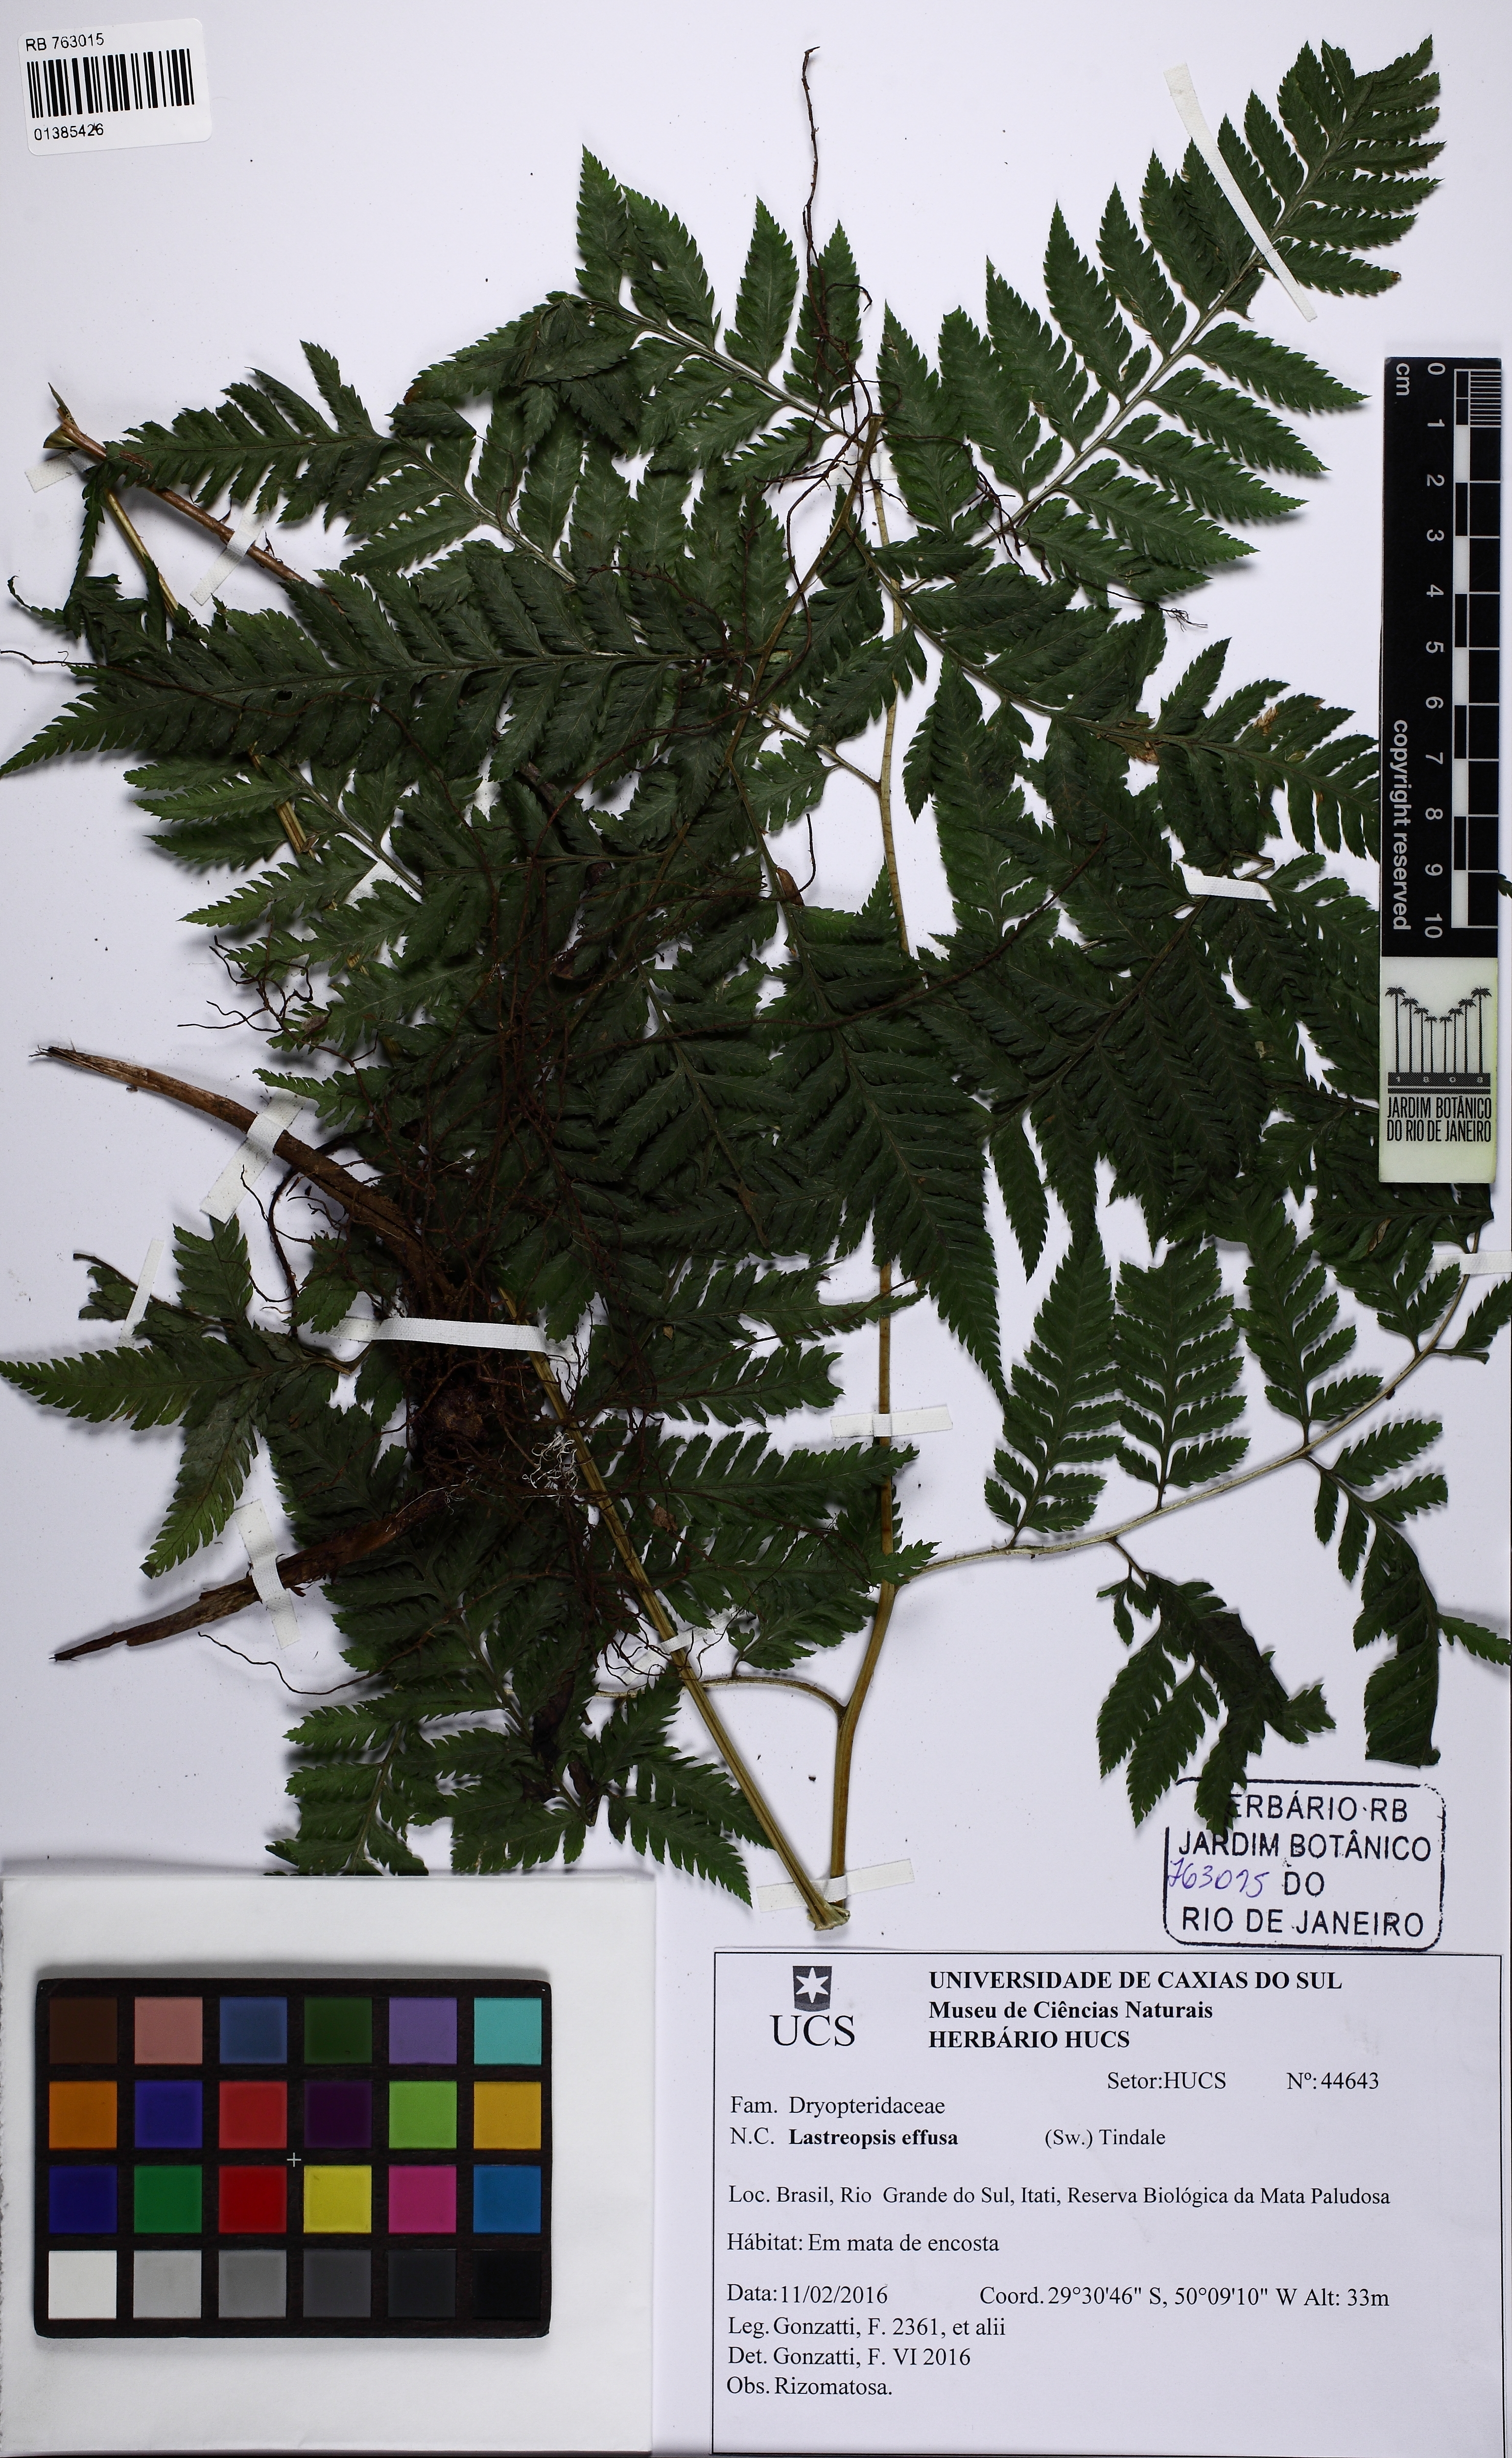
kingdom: Plantae
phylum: Tracheophyta
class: Polypodiopsida
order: Polypodiales
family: Dryopteridaceae
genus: Parapolystichum
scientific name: Parapolystichum effusum
